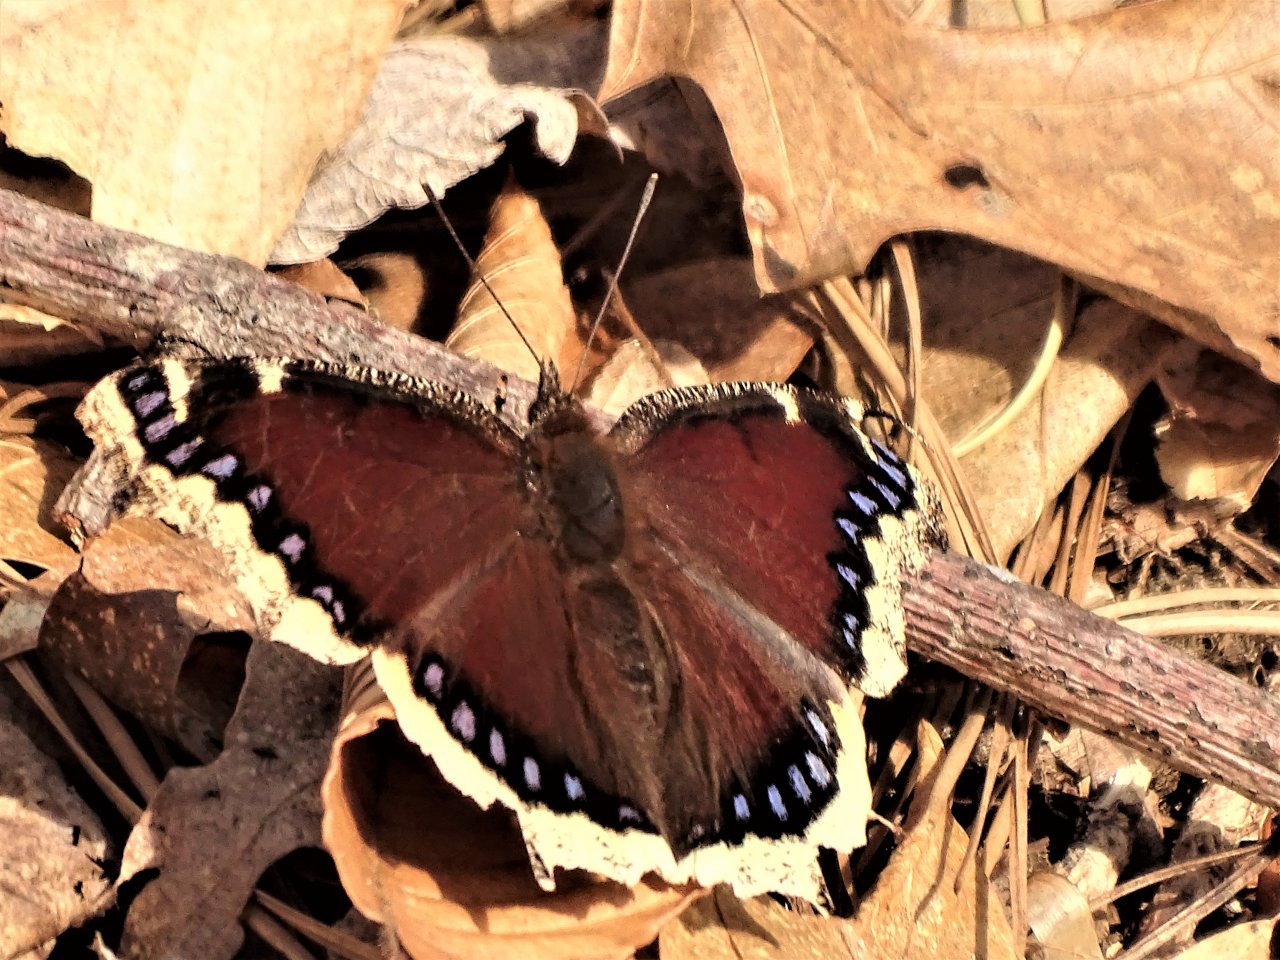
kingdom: Animalia
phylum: Arthropoda
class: Insecta
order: Lepidoptera
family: Nymphalidae
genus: Nymphalis
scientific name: Nymphalis antiopa
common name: Mourning Cloak
